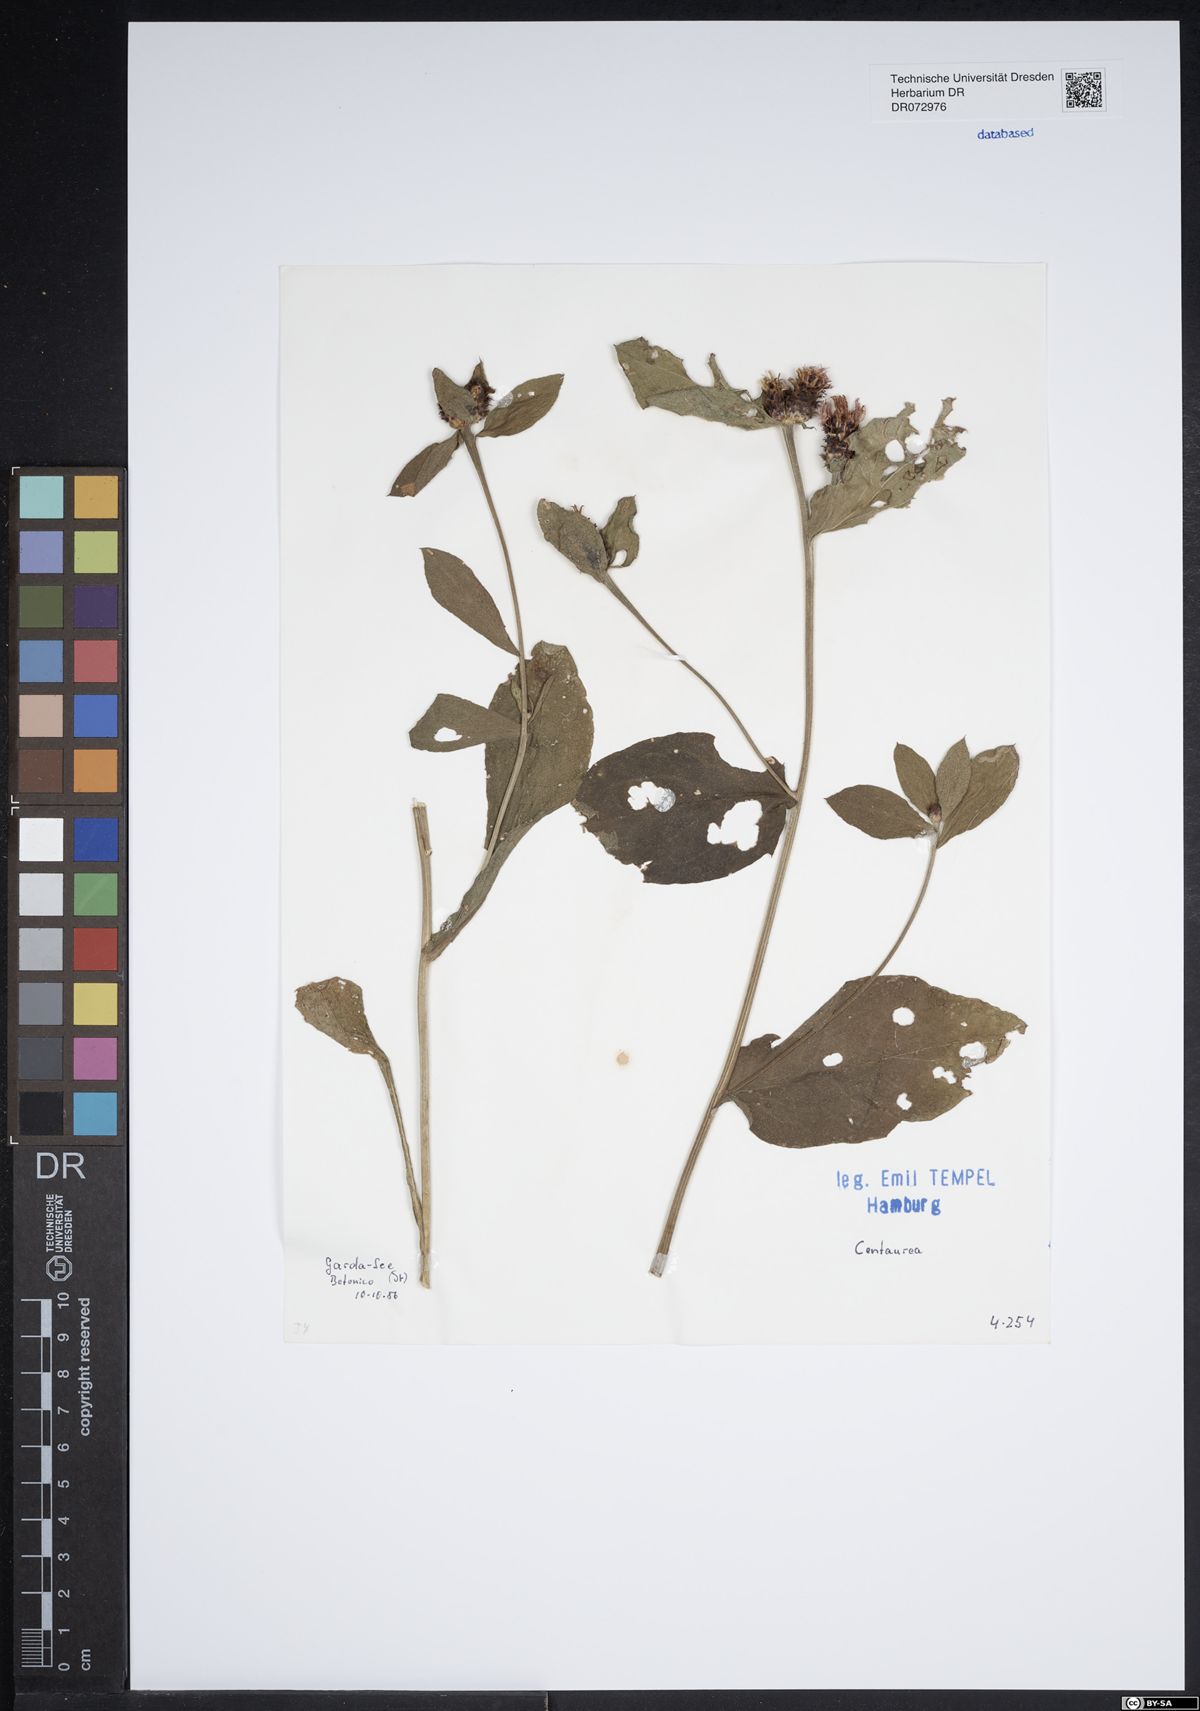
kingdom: Plantae
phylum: Tracheophyta
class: Magnoliopsida
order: Asterales
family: Asteraceae
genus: Centaurea
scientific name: Centaurea
